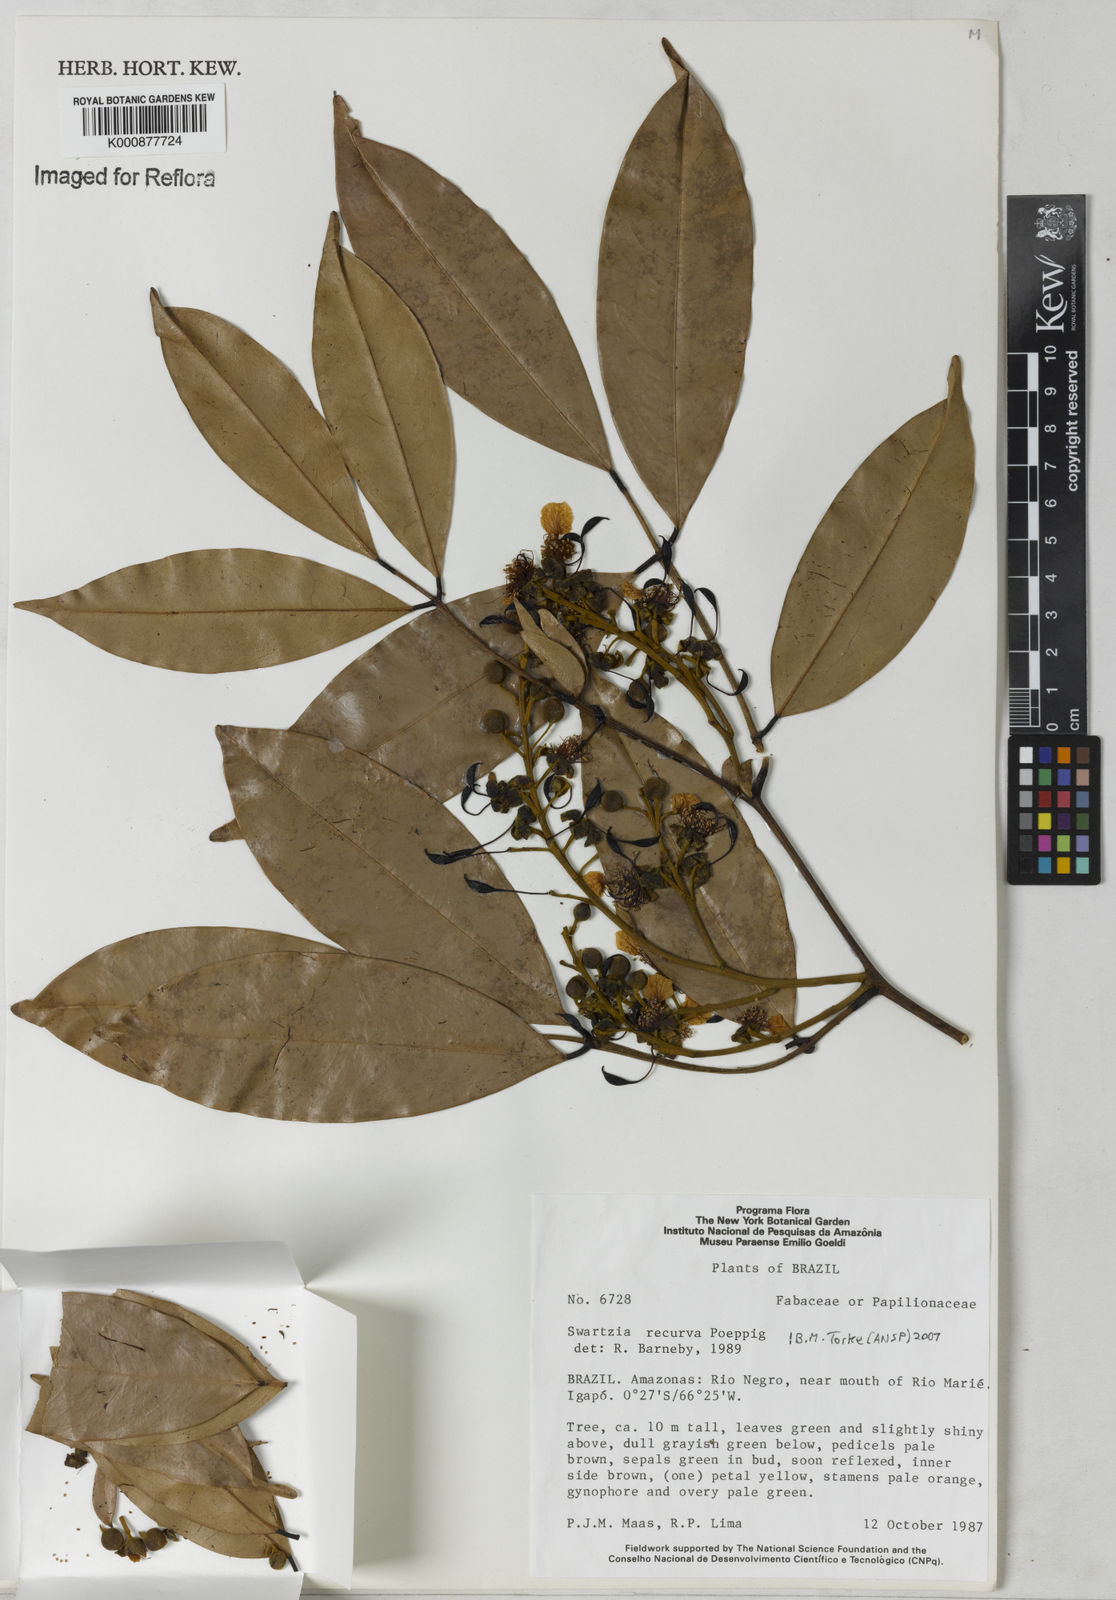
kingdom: Plantae
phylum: Tracheophyta
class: Magnoliopsida
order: Fabales
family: Fabaceae
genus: Swartzia
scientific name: Swartzia recurva
